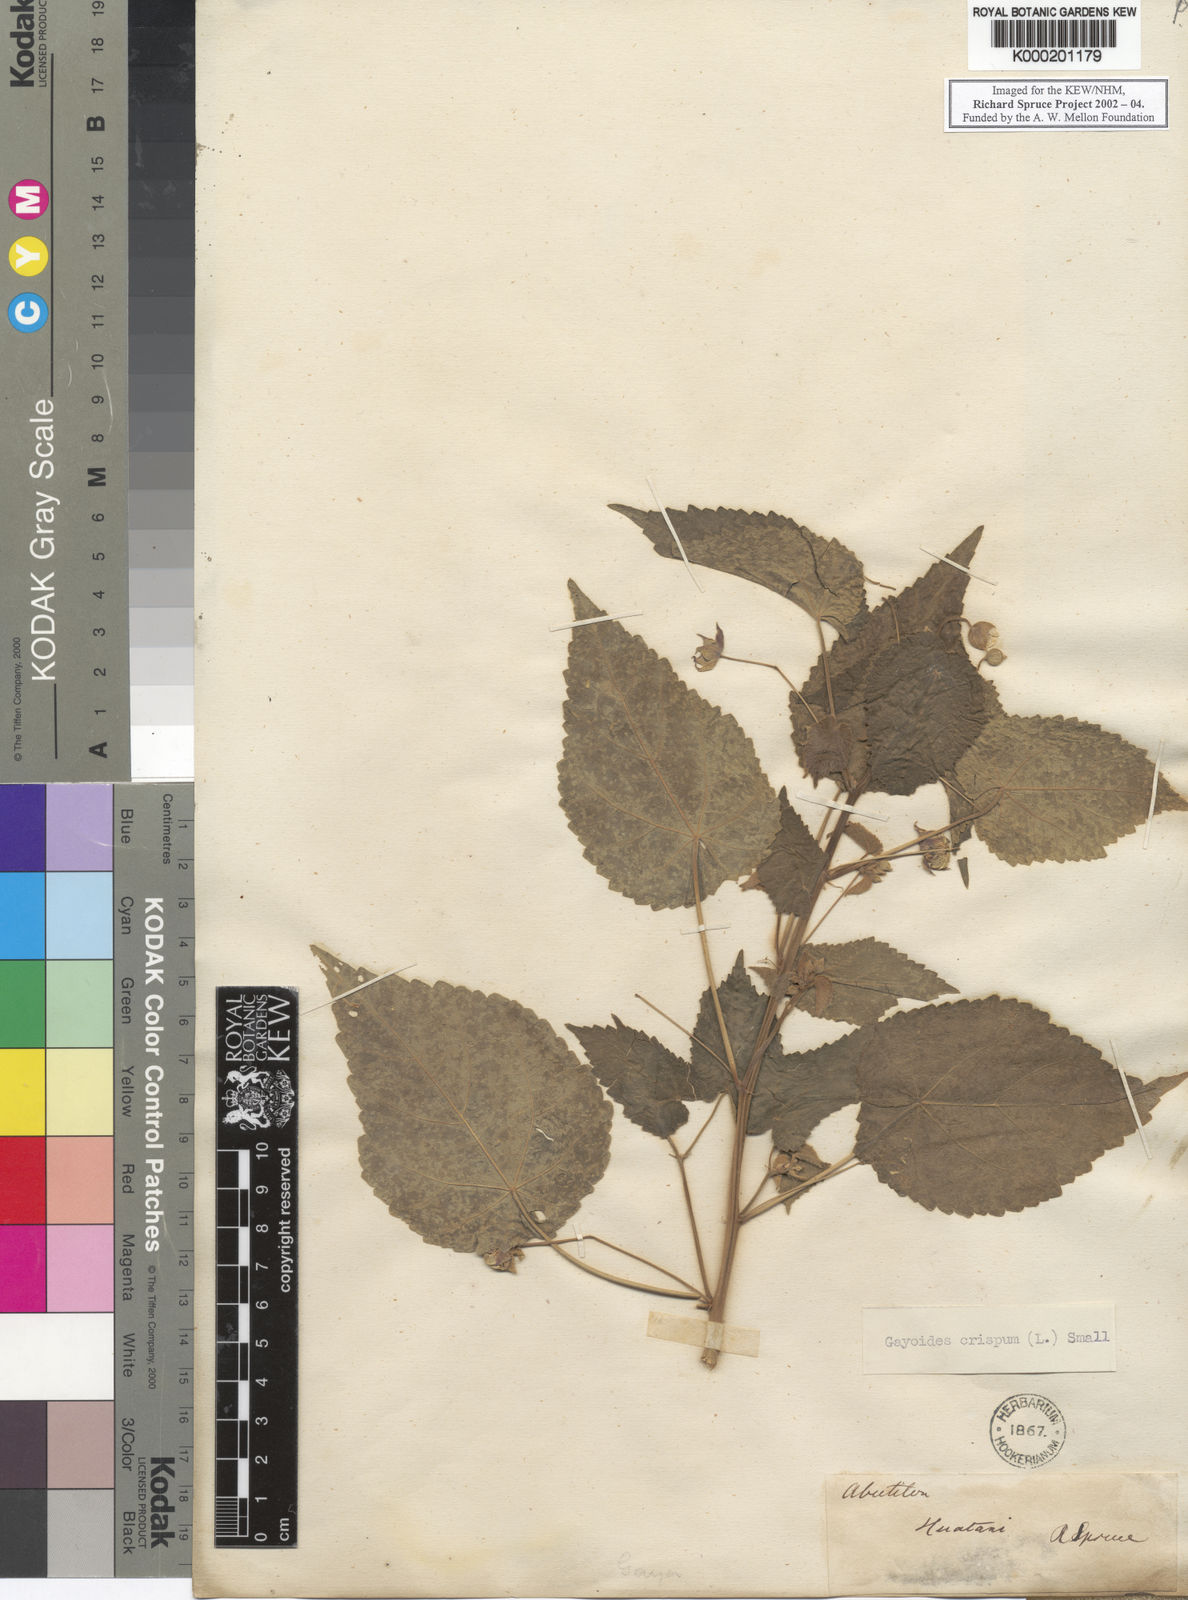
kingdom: Plantae
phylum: Tracheophyta
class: Magnoliopsida
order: Malvales
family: Malvaceae
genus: Herissantia
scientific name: Herissantia crispa
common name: Bladdermallow
